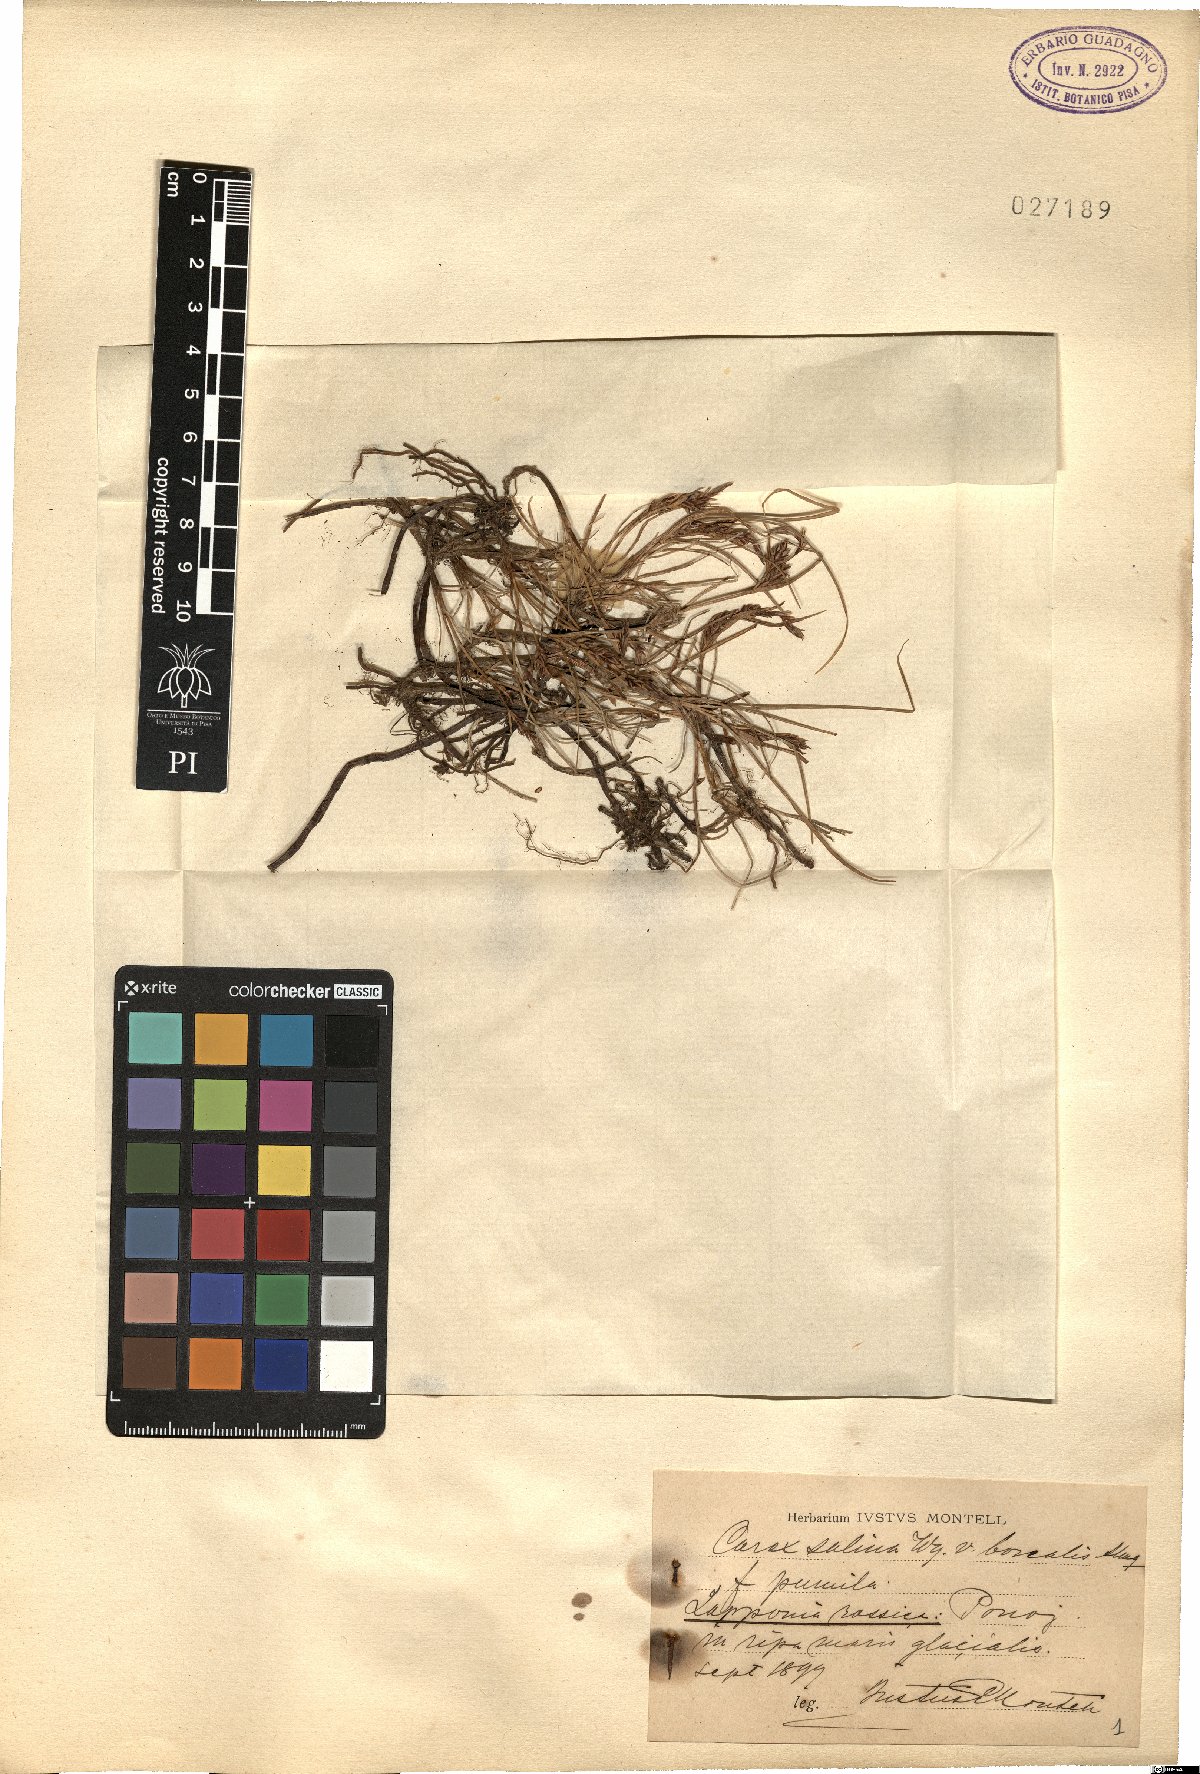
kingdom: Plantae
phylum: Tracheophyta
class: Liliopsida
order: Poales
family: Cyperaceae
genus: Carex
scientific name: Carex salina
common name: Saltmarsh sedge
